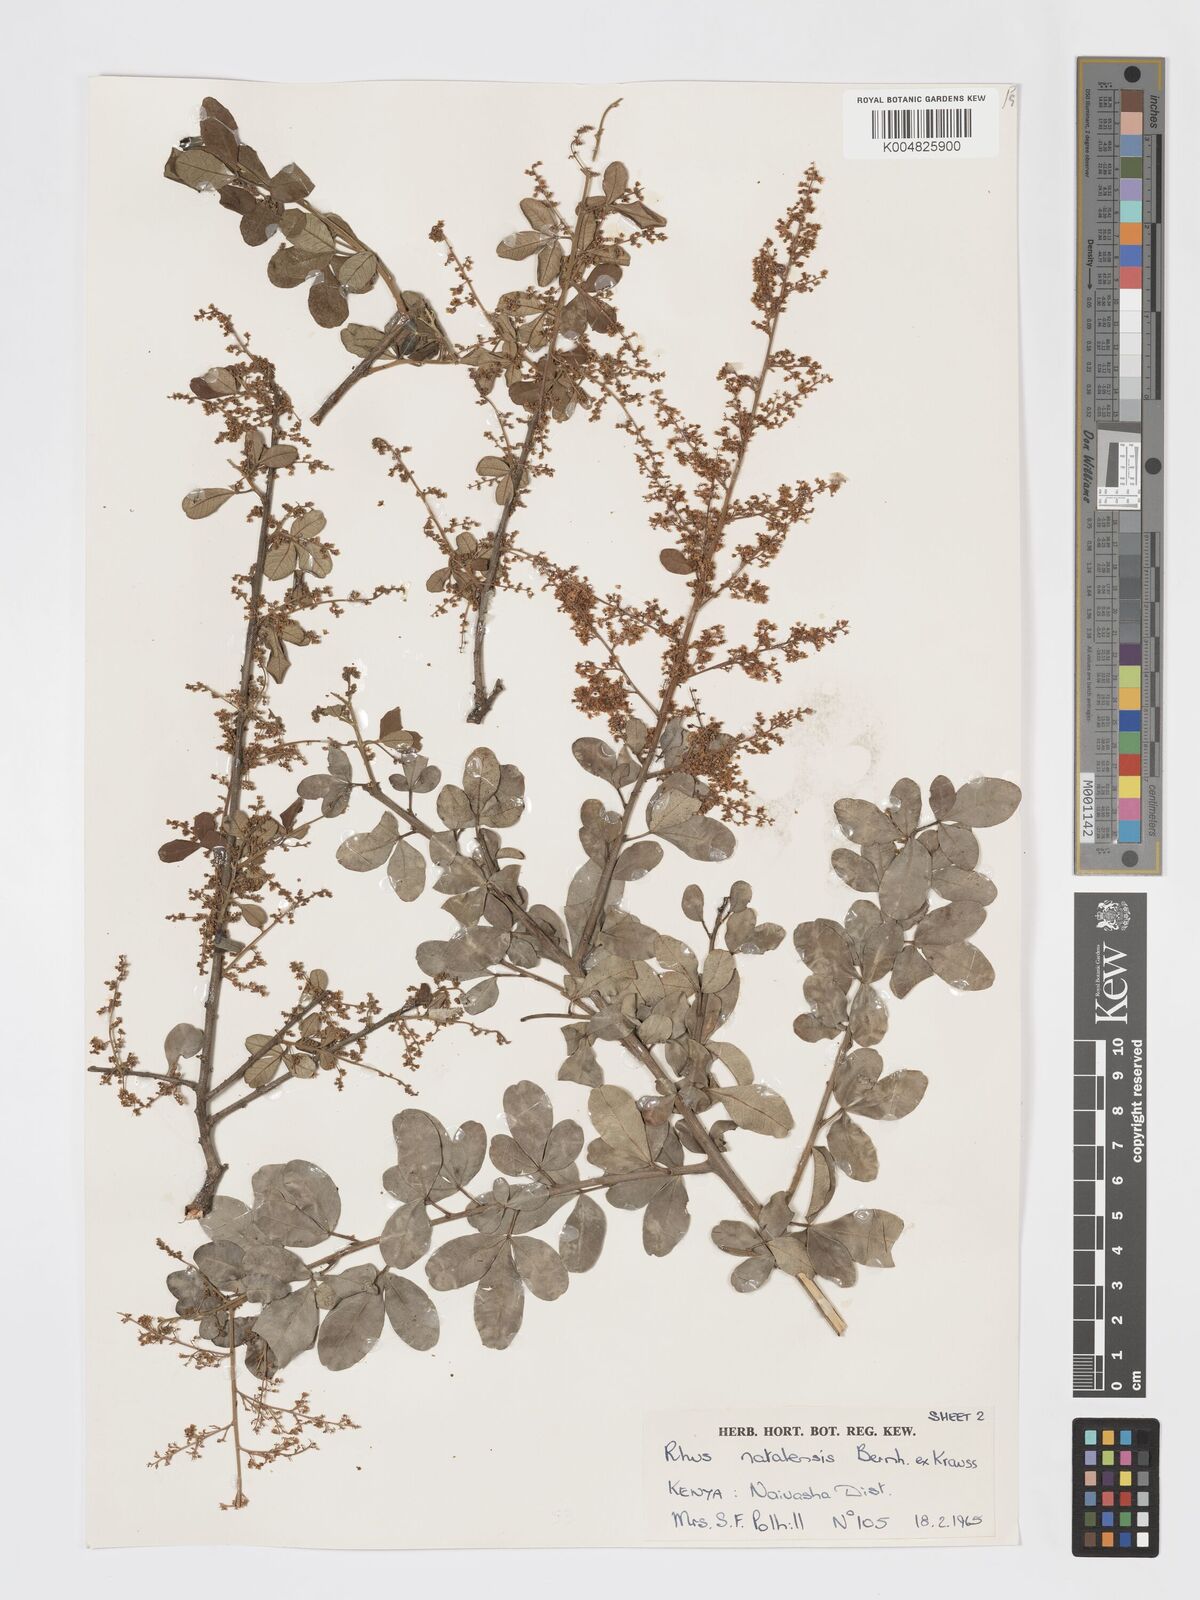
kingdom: Plantae
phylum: Tracheophyta
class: Magnoliopsida
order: Sapindales
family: Anacardiaceae
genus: Searsia
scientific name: Searsia natalensis
